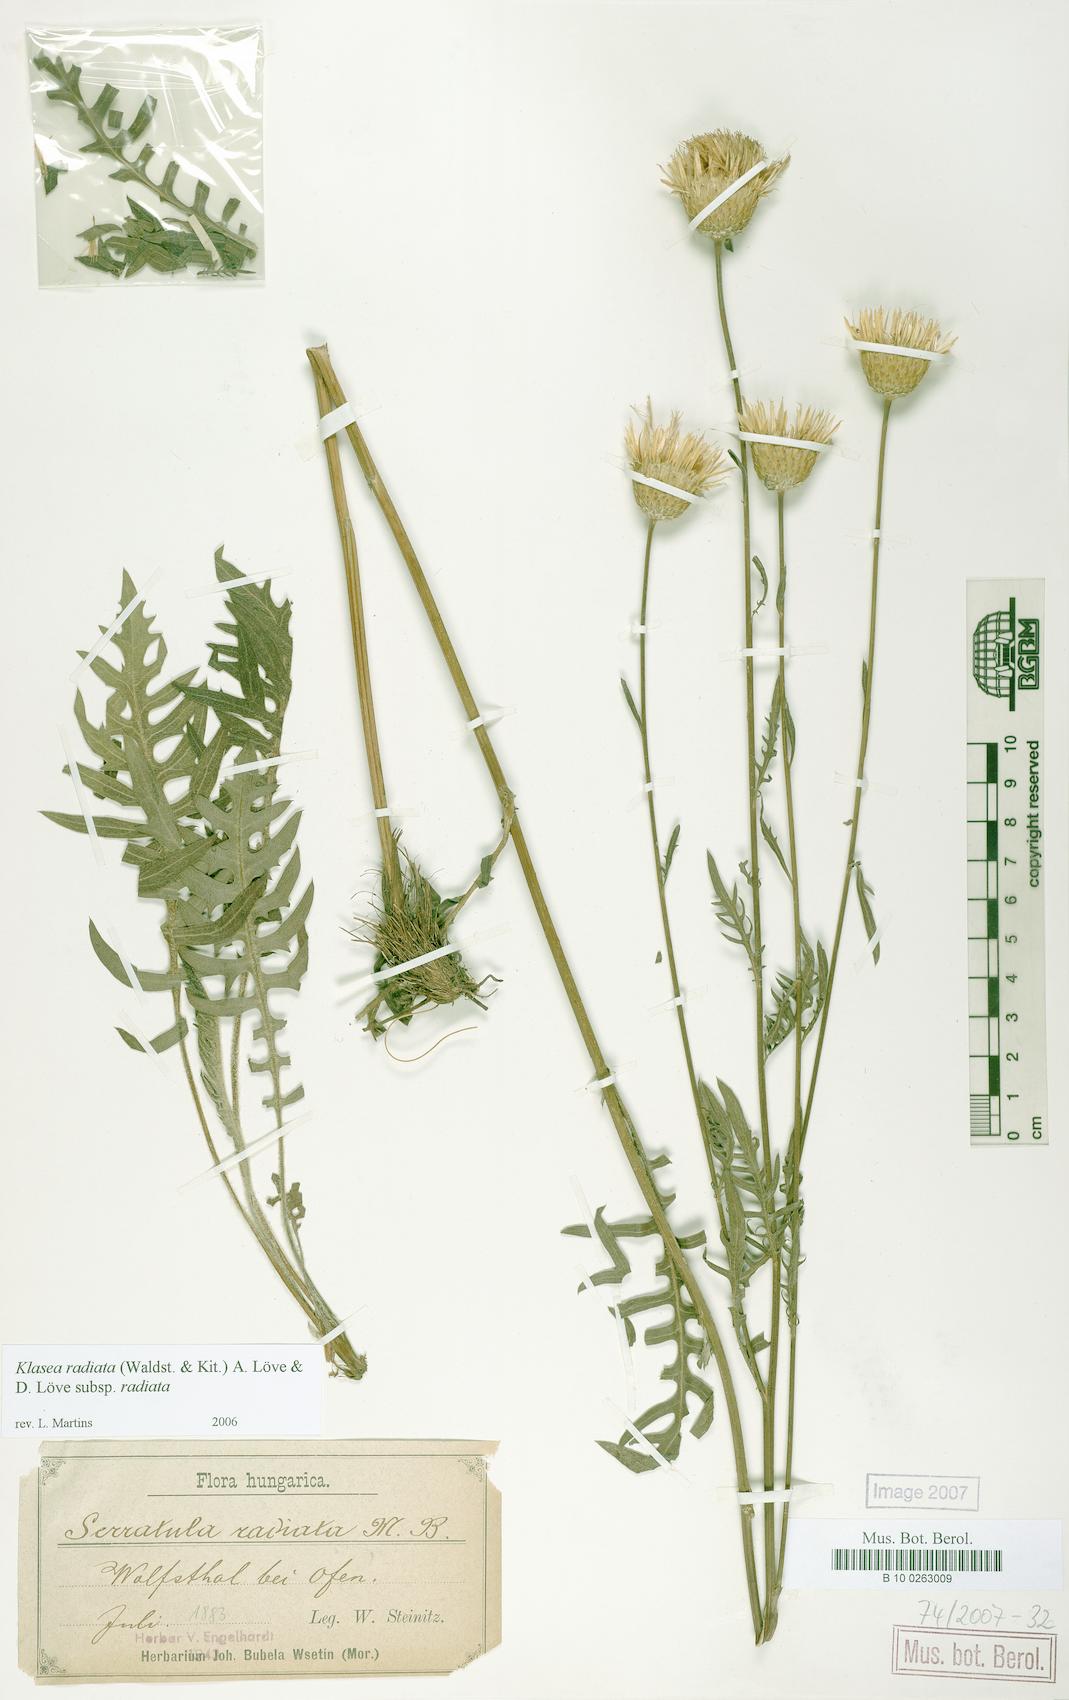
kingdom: Plantae
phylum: Tracheophyta
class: Magnoliopsida
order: Asterales
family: Asteraceae
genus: Klasea
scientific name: Klasea radiata
